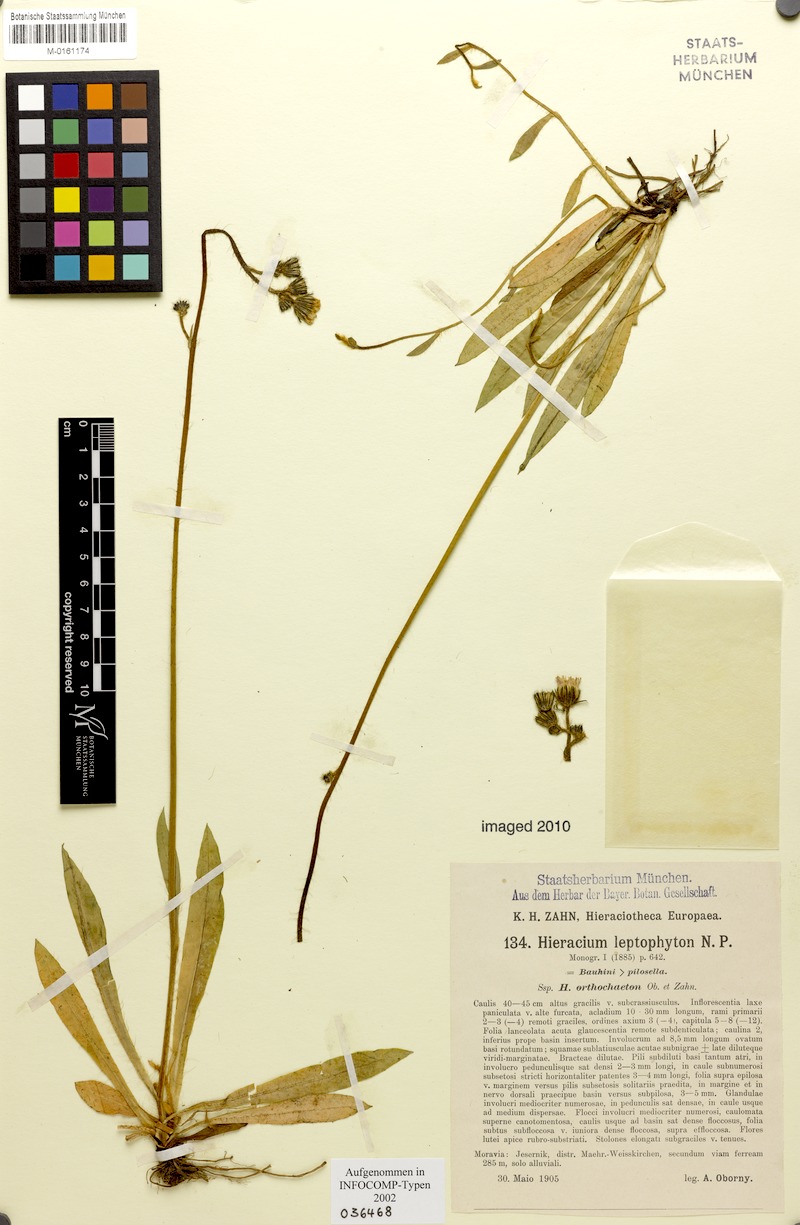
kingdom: Plantae
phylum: Tracheophyta
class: Magnoliopsida
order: Asterales
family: Asteraceae
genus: Pilosella
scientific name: Pilosella leptophyton
